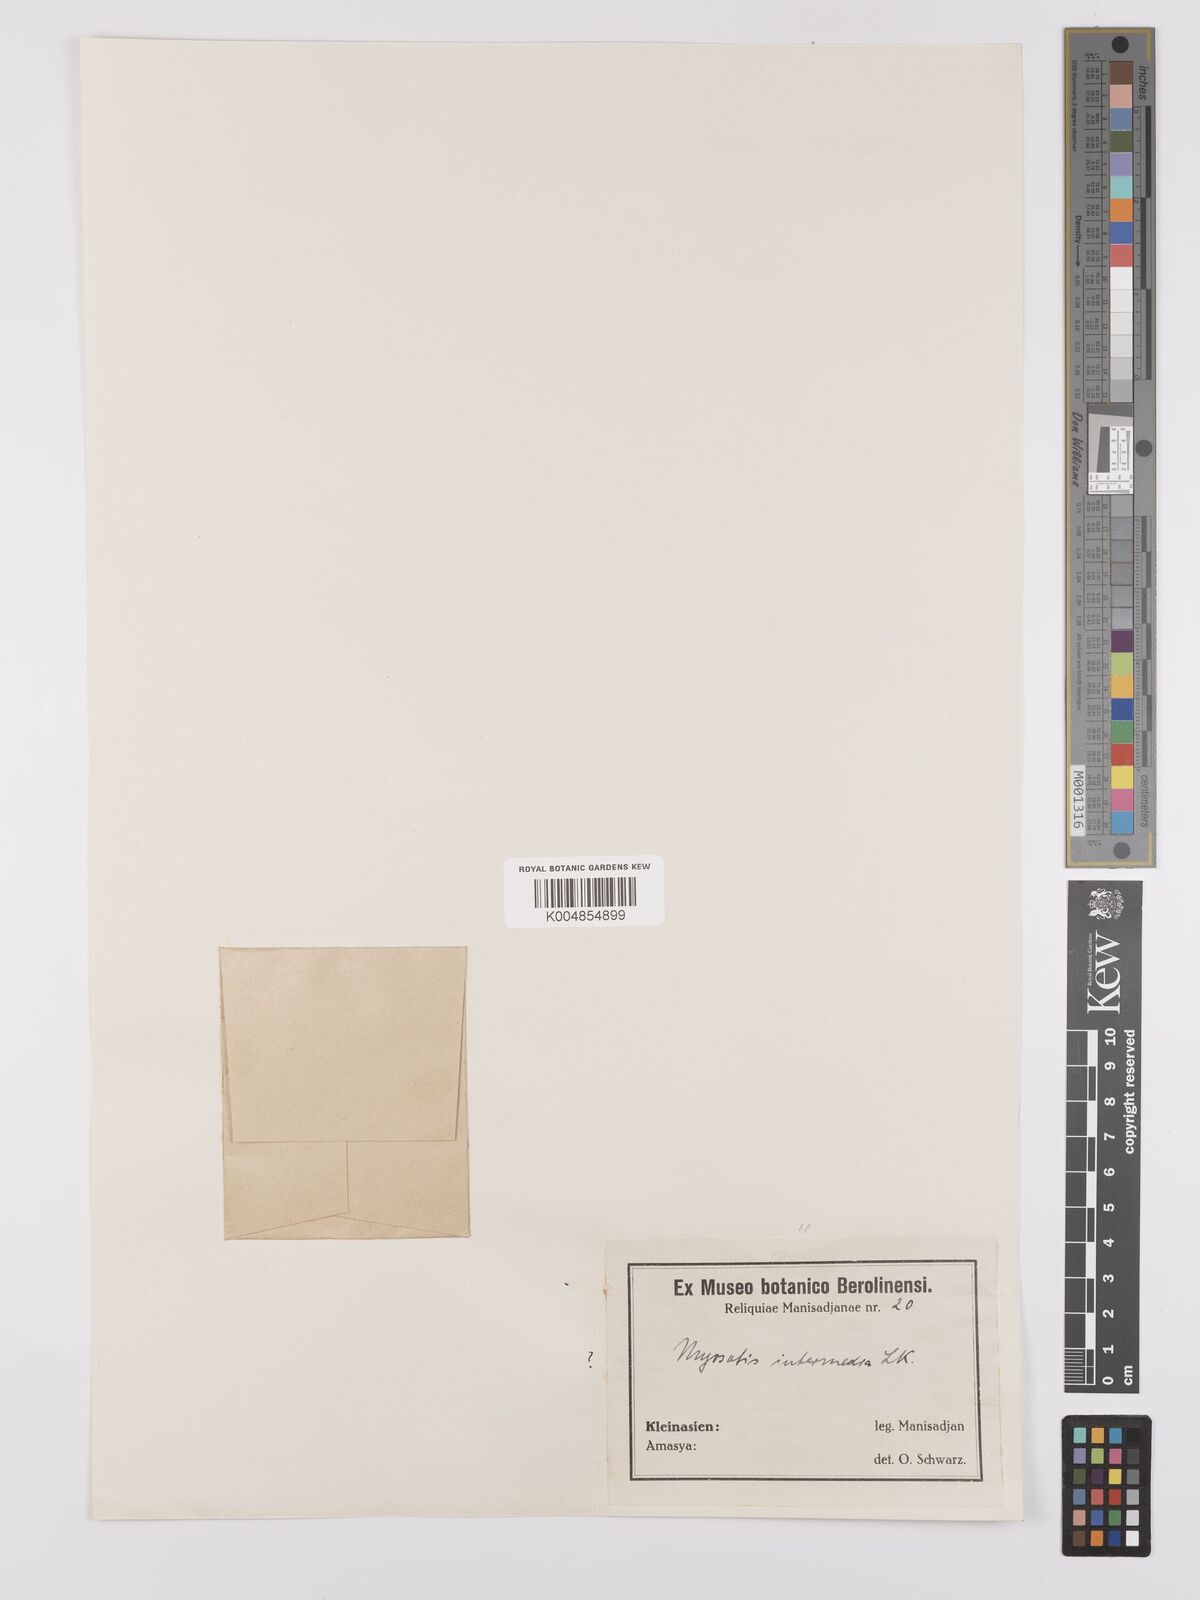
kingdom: Plantae
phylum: Tracheophyta
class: Magnoliopsida
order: Boraginales
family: Boraginaceae
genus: Myosotis
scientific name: Myosotis
